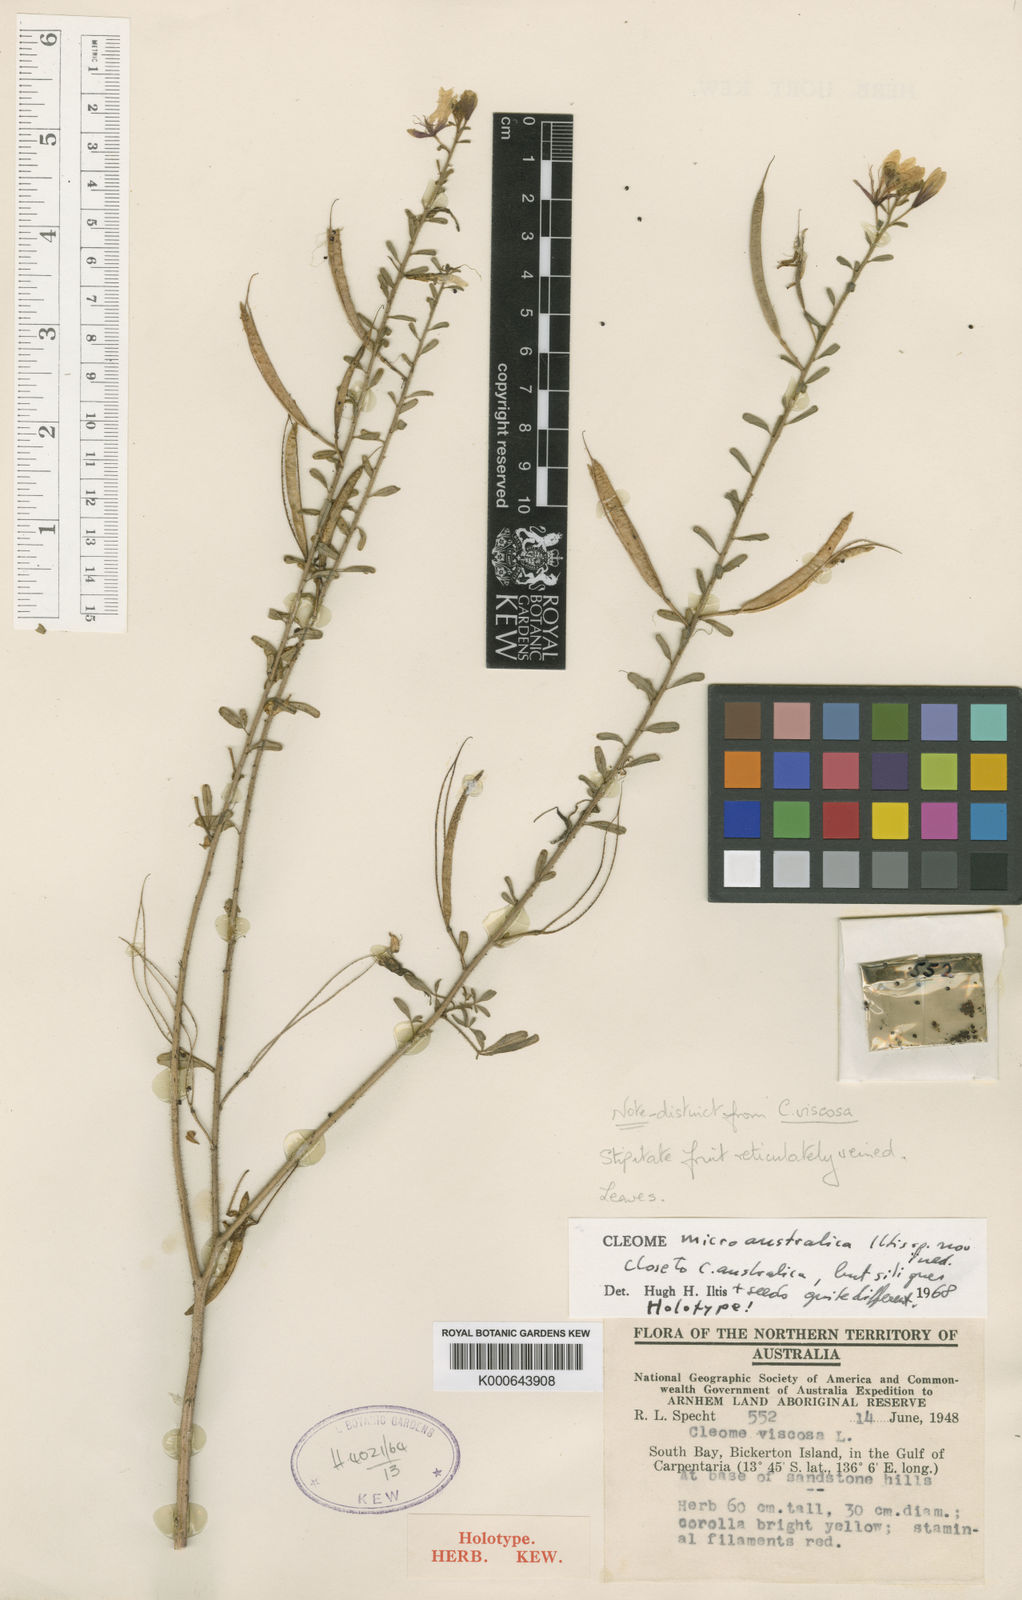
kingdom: Plantae
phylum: Tracheophyta
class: Magnoliopsida
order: Brassicales
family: Cleomaceae
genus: Arivela
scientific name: Arivela microaustralica
